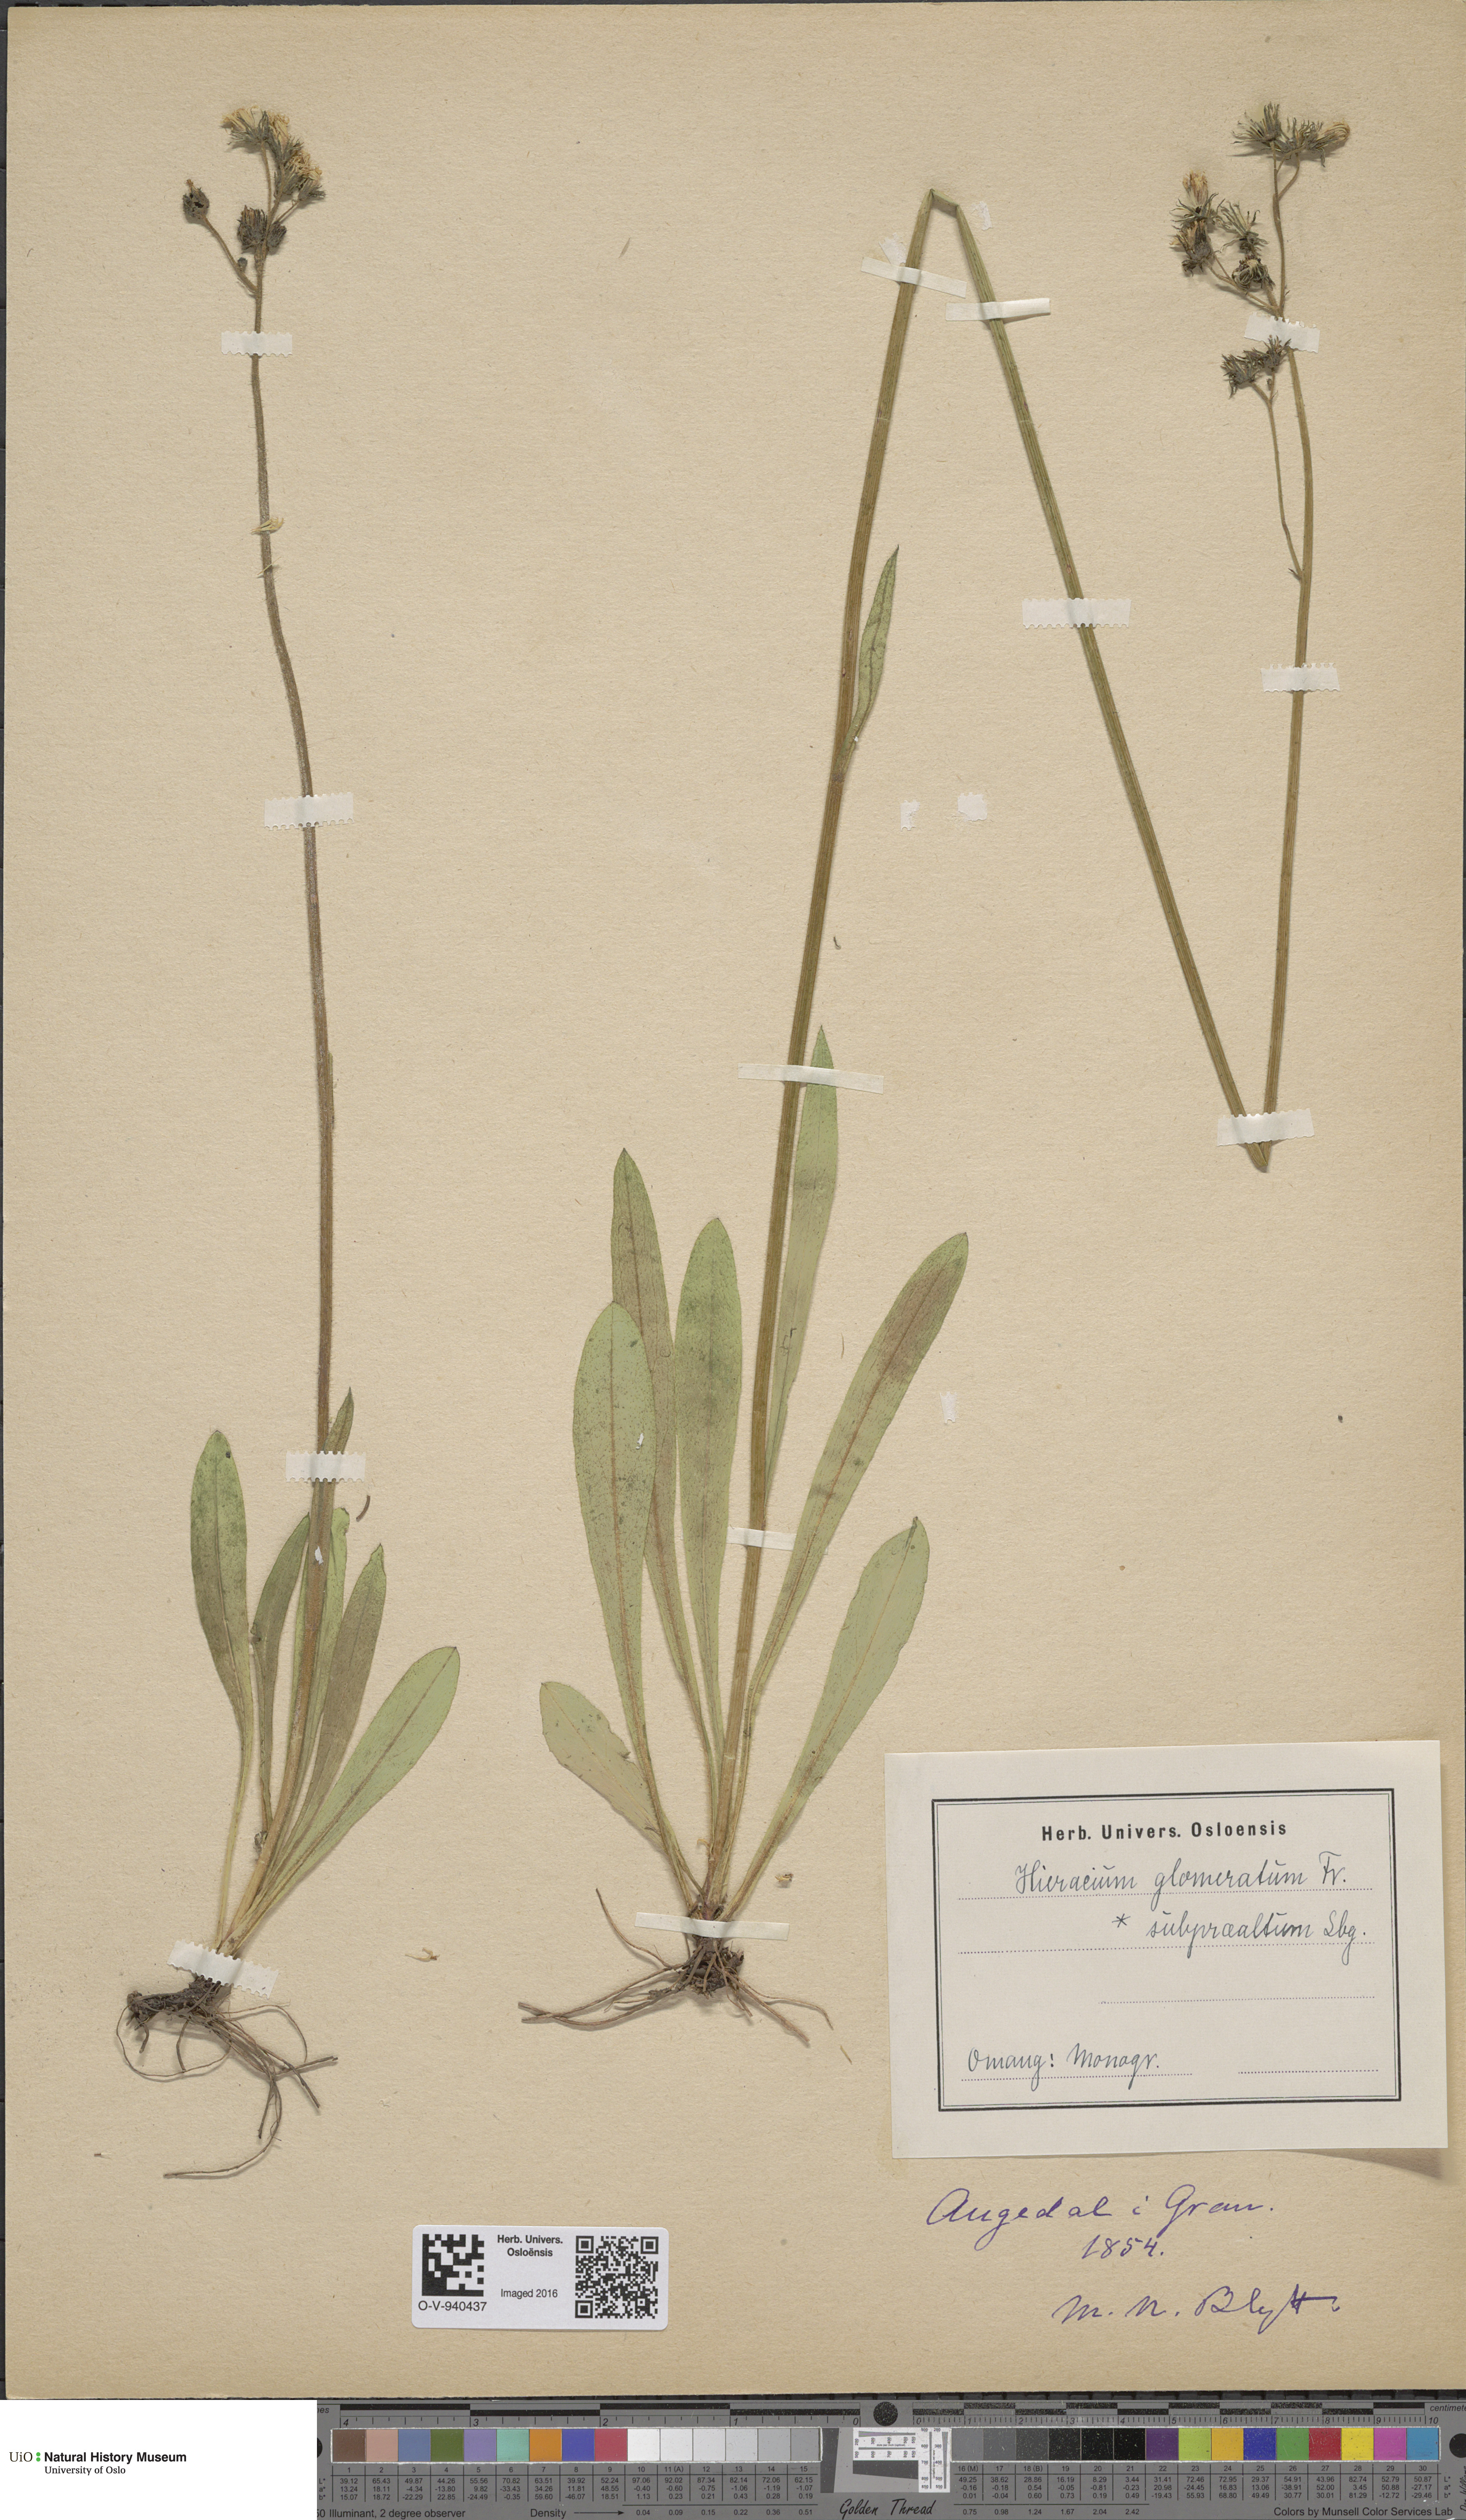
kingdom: Plantae
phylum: Tracheophyta
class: Magnoliopsida
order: Asterales
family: Asteraceae
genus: Pilosella
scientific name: Pilosella glomerata
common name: Queen devil hawkweed
